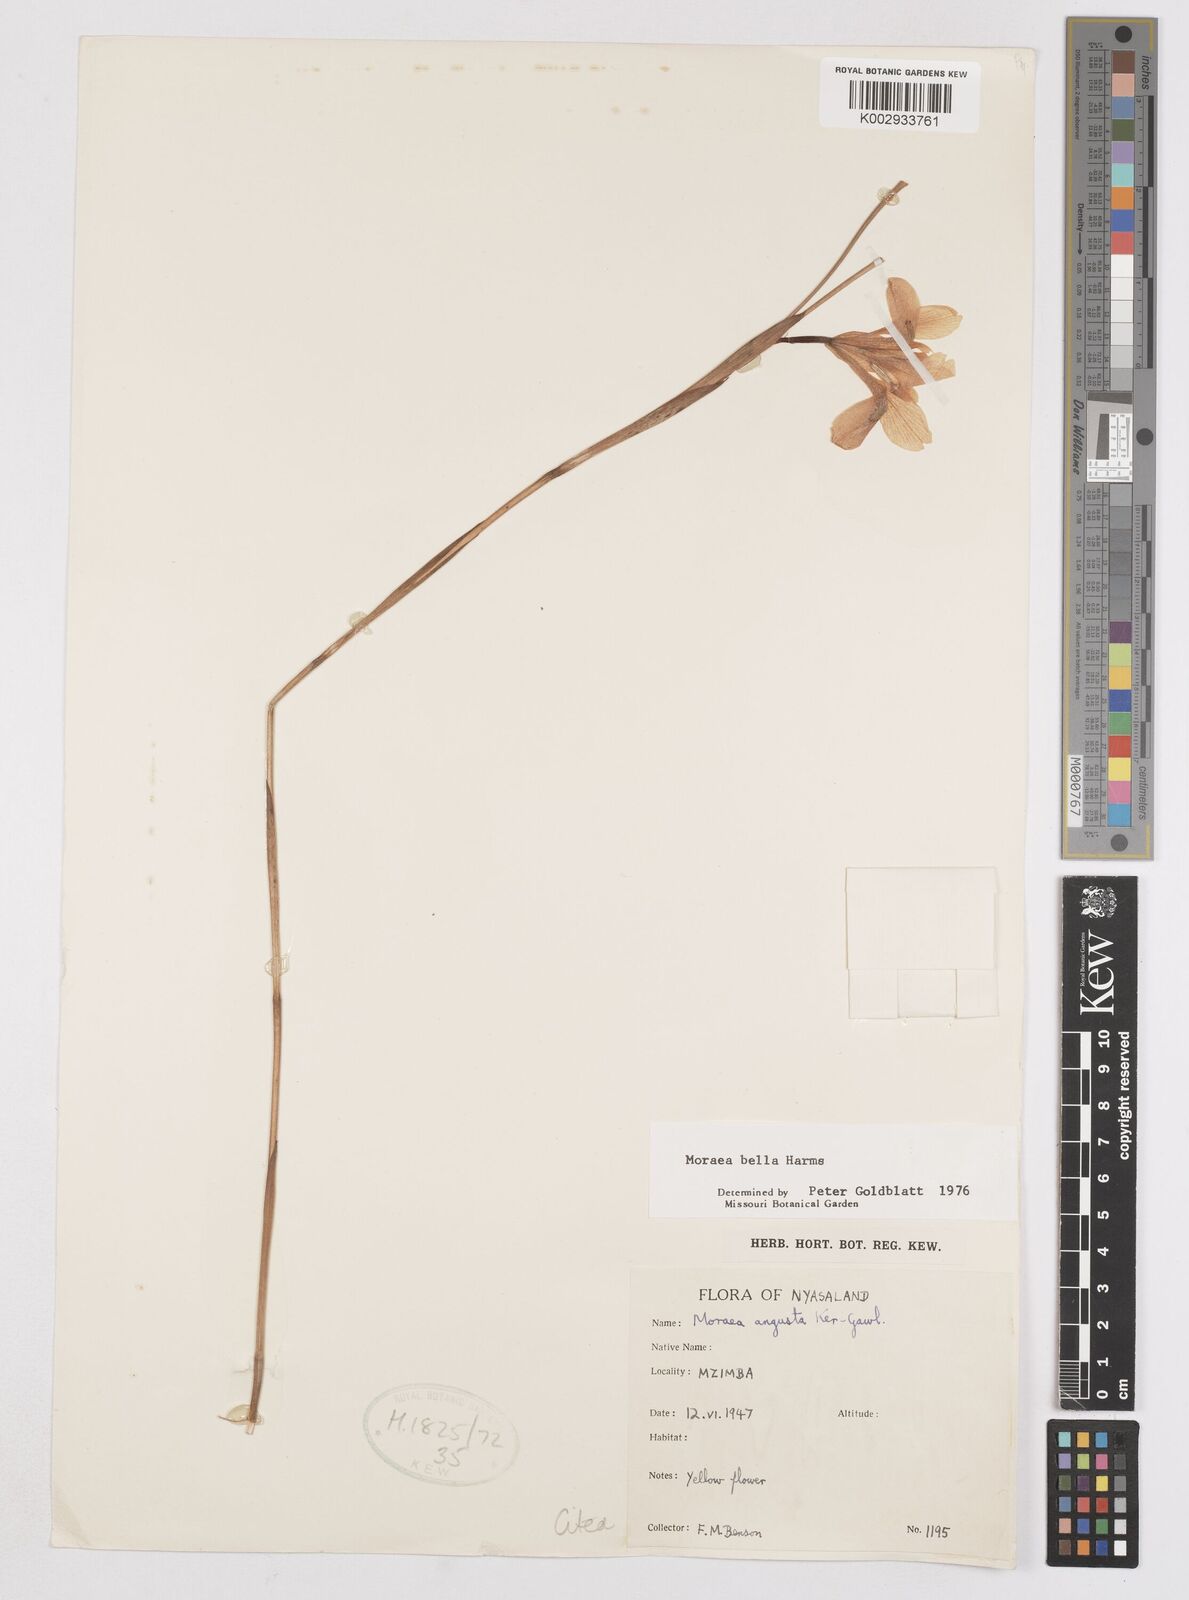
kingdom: Plantae
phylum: Tracheophyta
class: Liliopsida
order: Asparagales
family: Iridaceae
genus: Moraea
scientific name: Moraea bella
